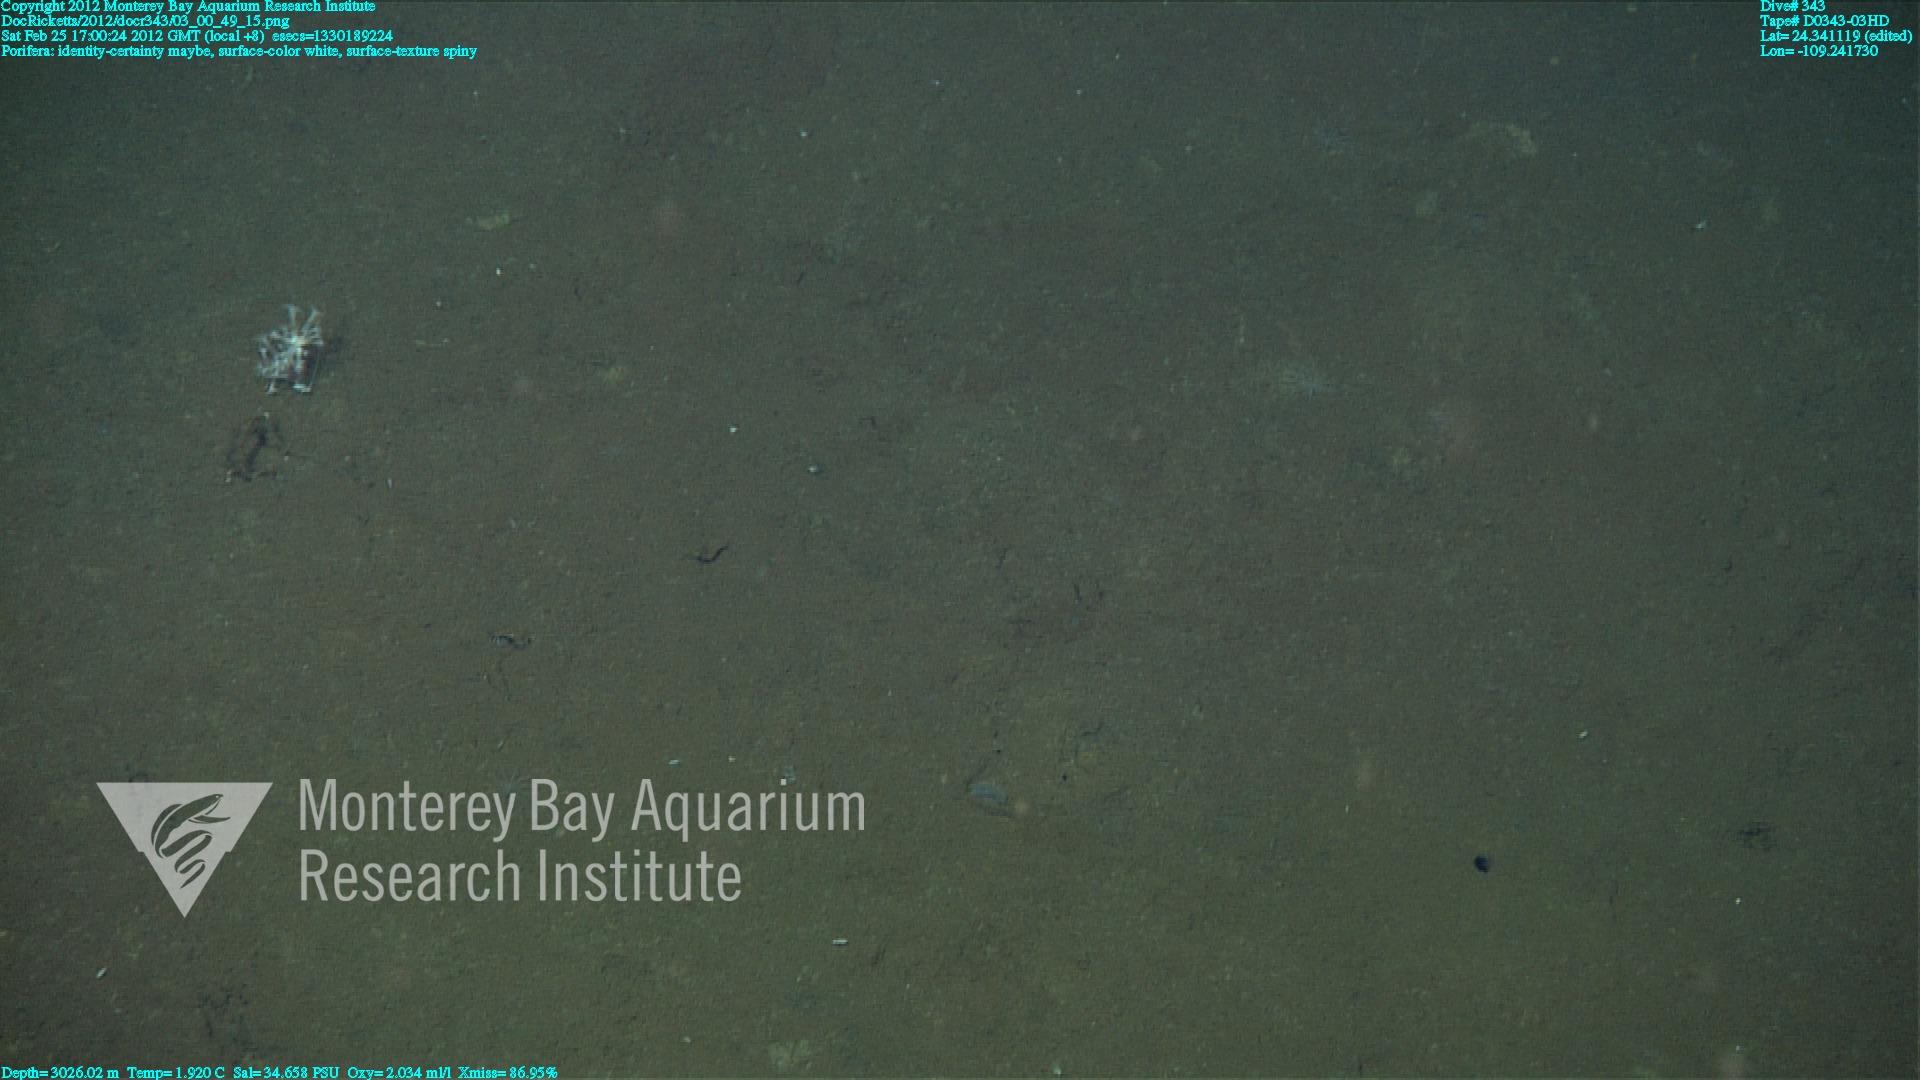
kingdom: Animalia
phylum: Porifera
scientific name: Porifera
